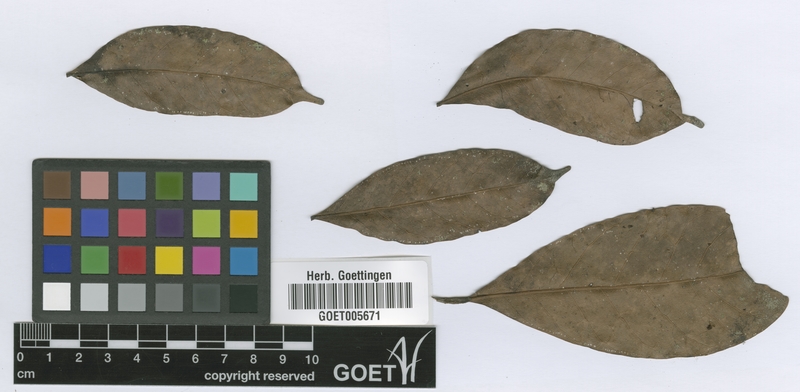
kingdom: Plantae
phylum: Tracheophyta
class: Magnoliopsida
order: Sapindales
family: Anacardiaceae
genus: Trichoscypha
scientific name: Trichoscypha patens
